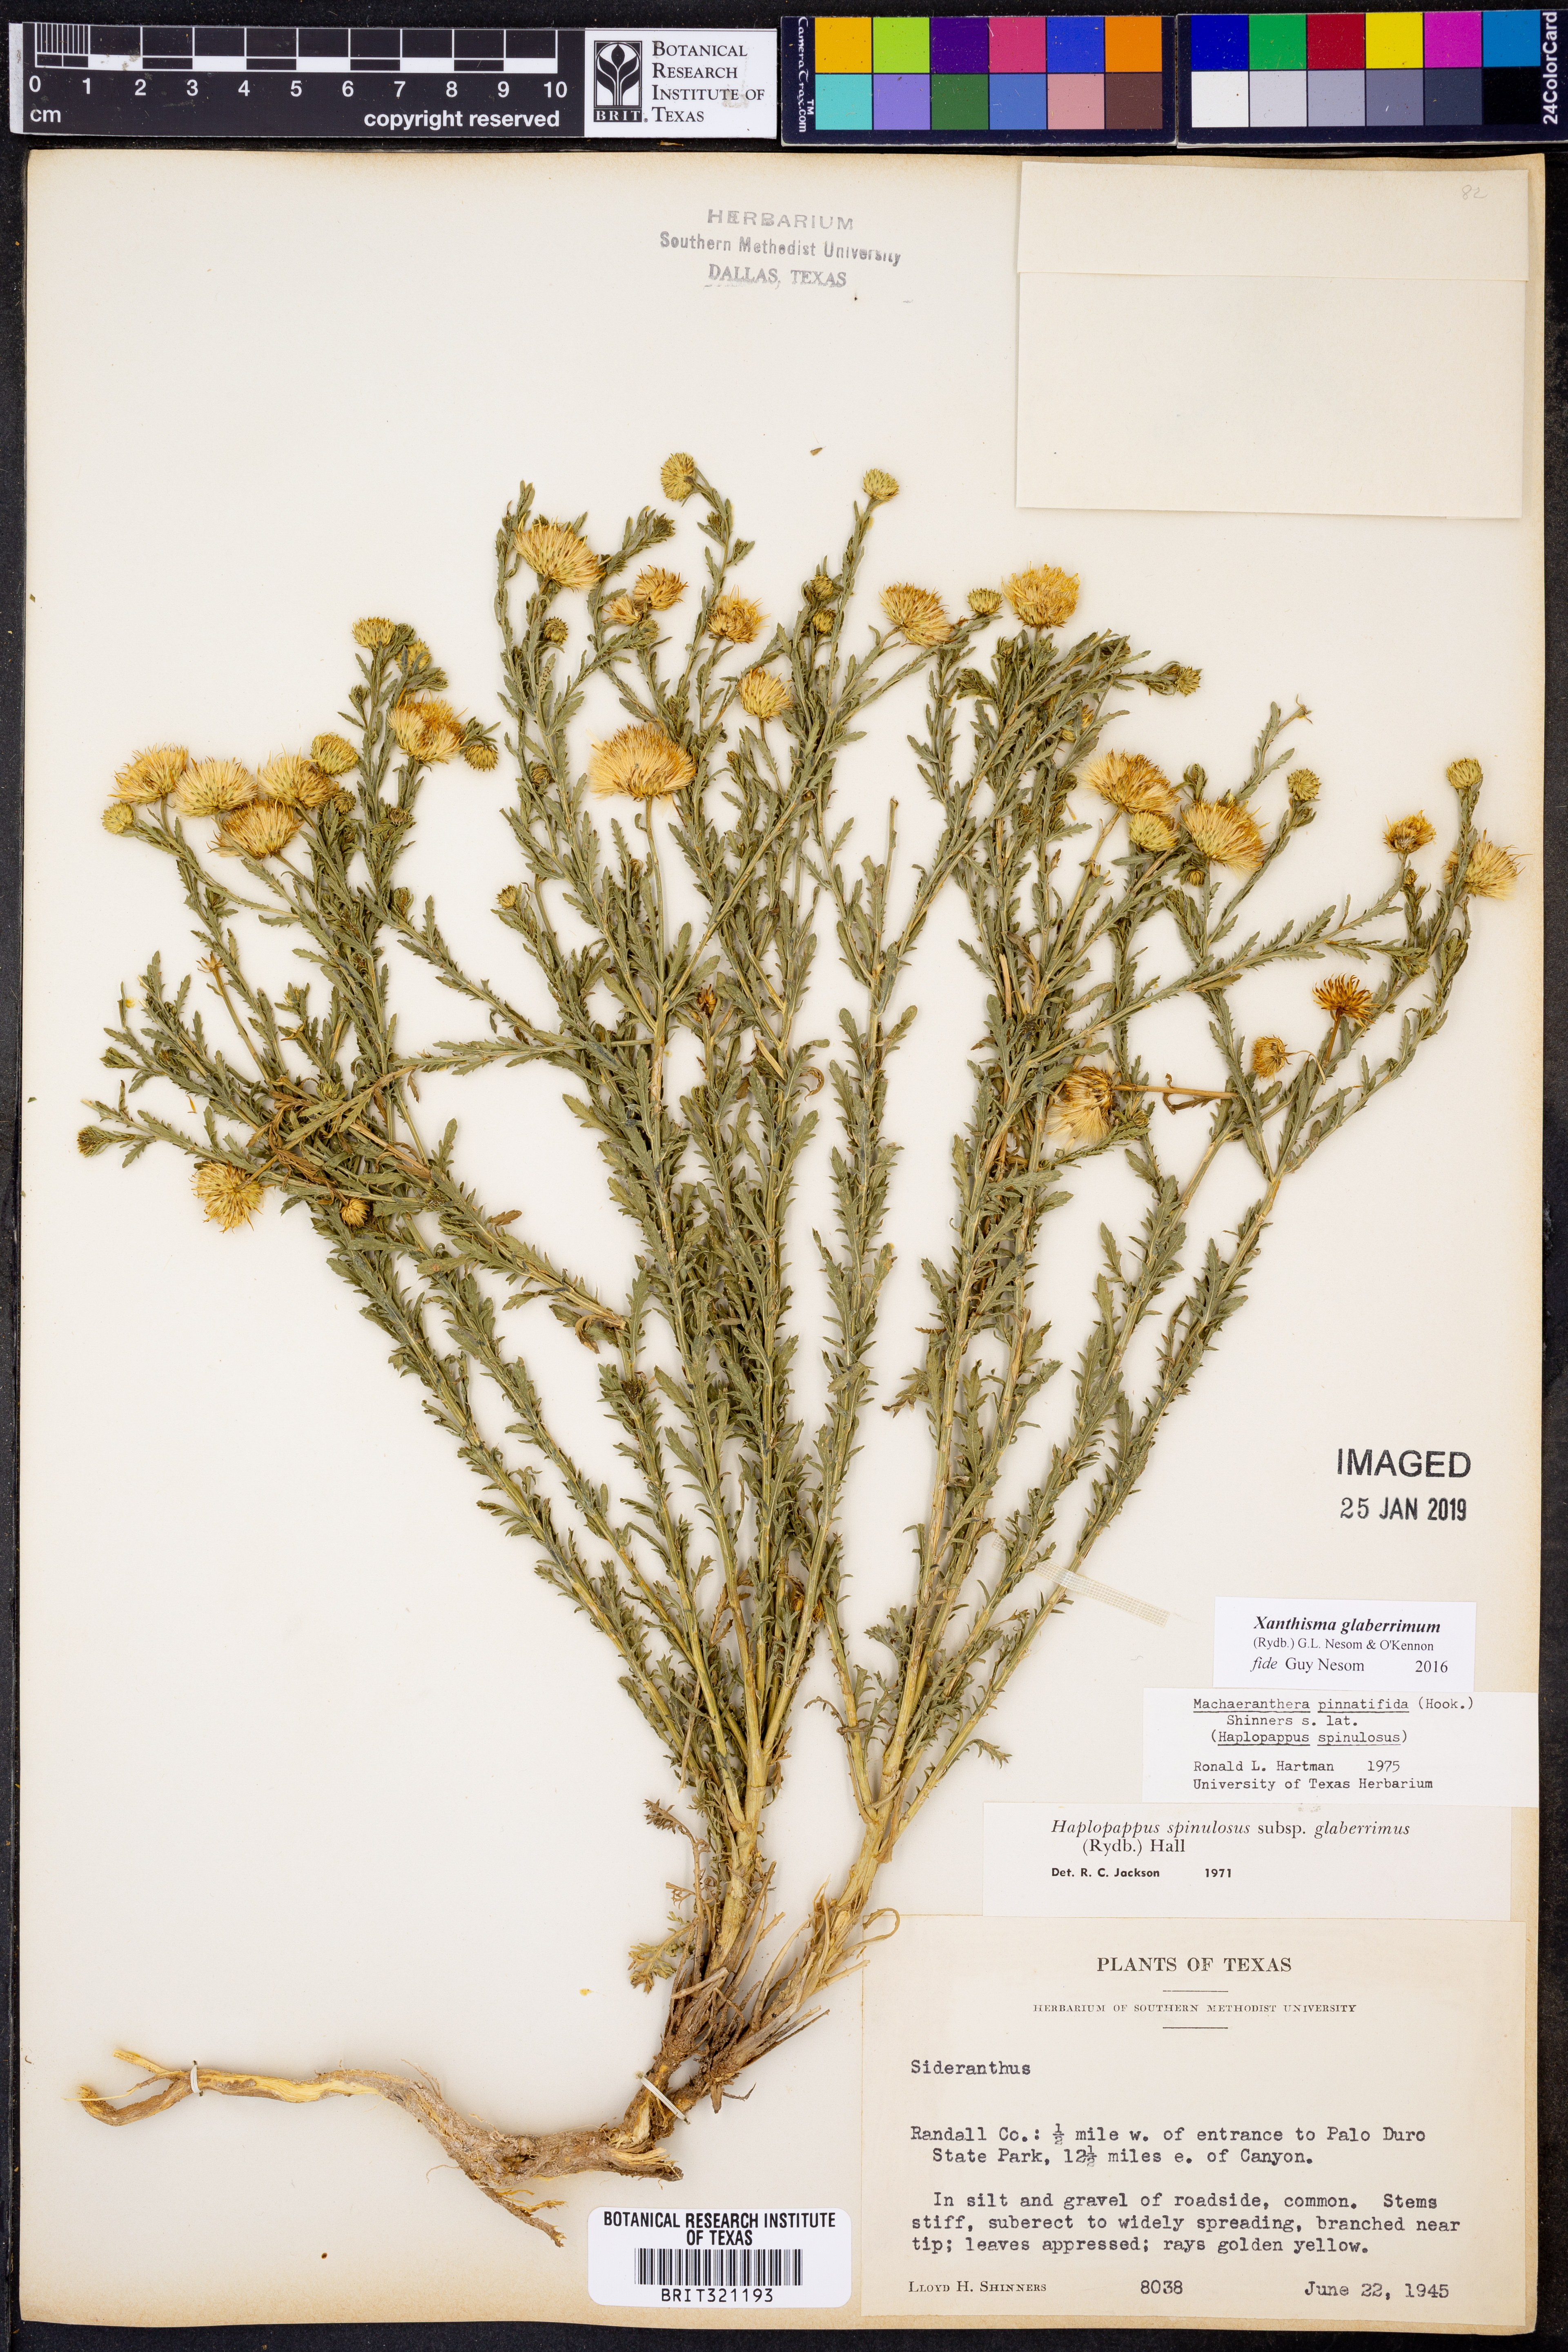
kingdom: Plantae
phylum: Tracheophyta
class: Magnoliopsida
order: Asterales
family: Asteraceae
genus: Xanthisma
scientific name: Xanthisma spinulosum
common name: Spiny goldenweed
